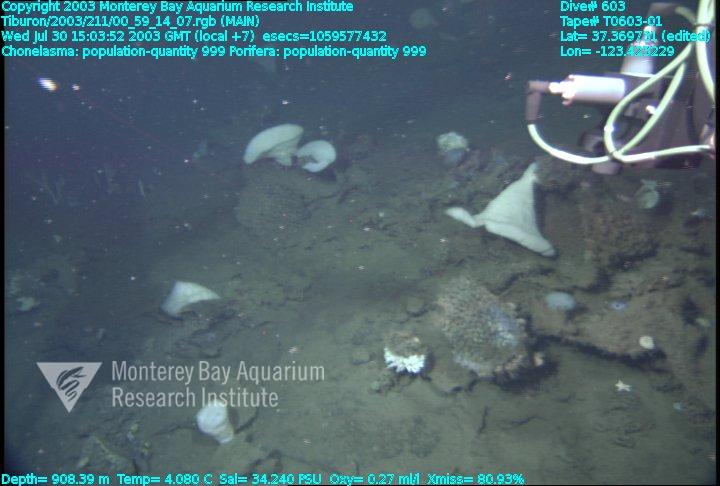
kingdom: Animalia
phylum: Porifera
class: Hexactinellida
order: Sceptrulophora
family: Euretidae
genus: Chonelasma
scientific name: Chonelasma
